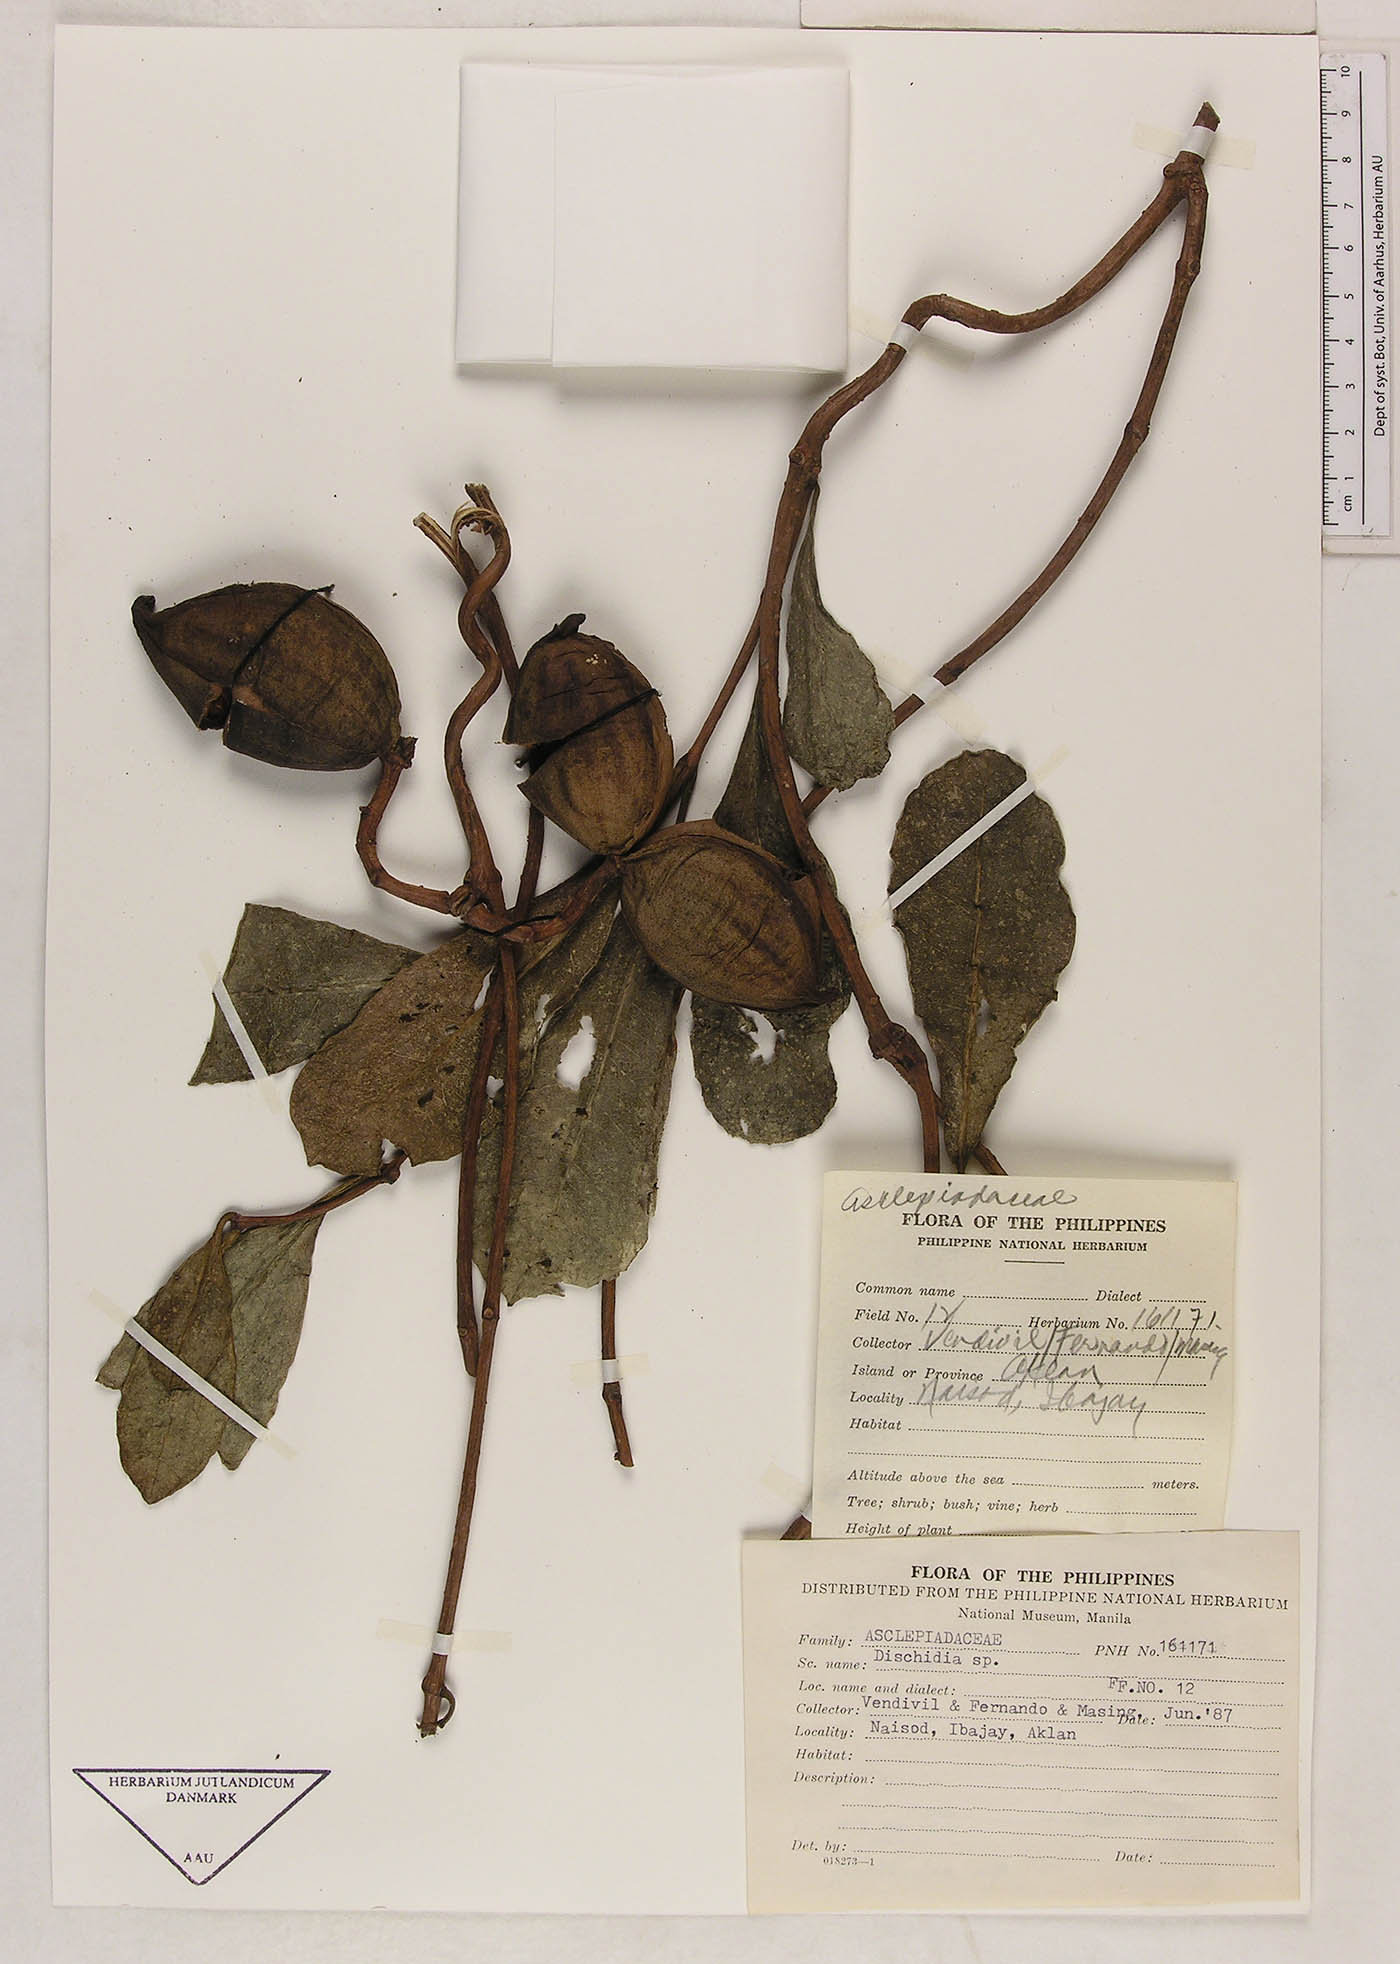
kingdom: Plantae
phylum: Tracheophyta
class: Magnoliopsida
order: Gentianales
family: Asclepiadaceae
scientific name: Asclepiadaceae
